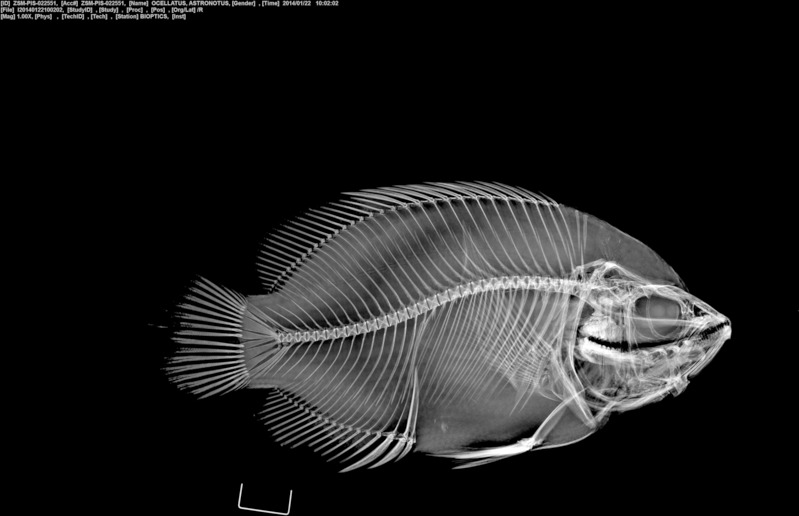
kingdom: Animalia
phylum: Chordata
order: Perciformes
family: Cichlidae
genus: Astronotus
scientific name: Astronotus crassipinnis
